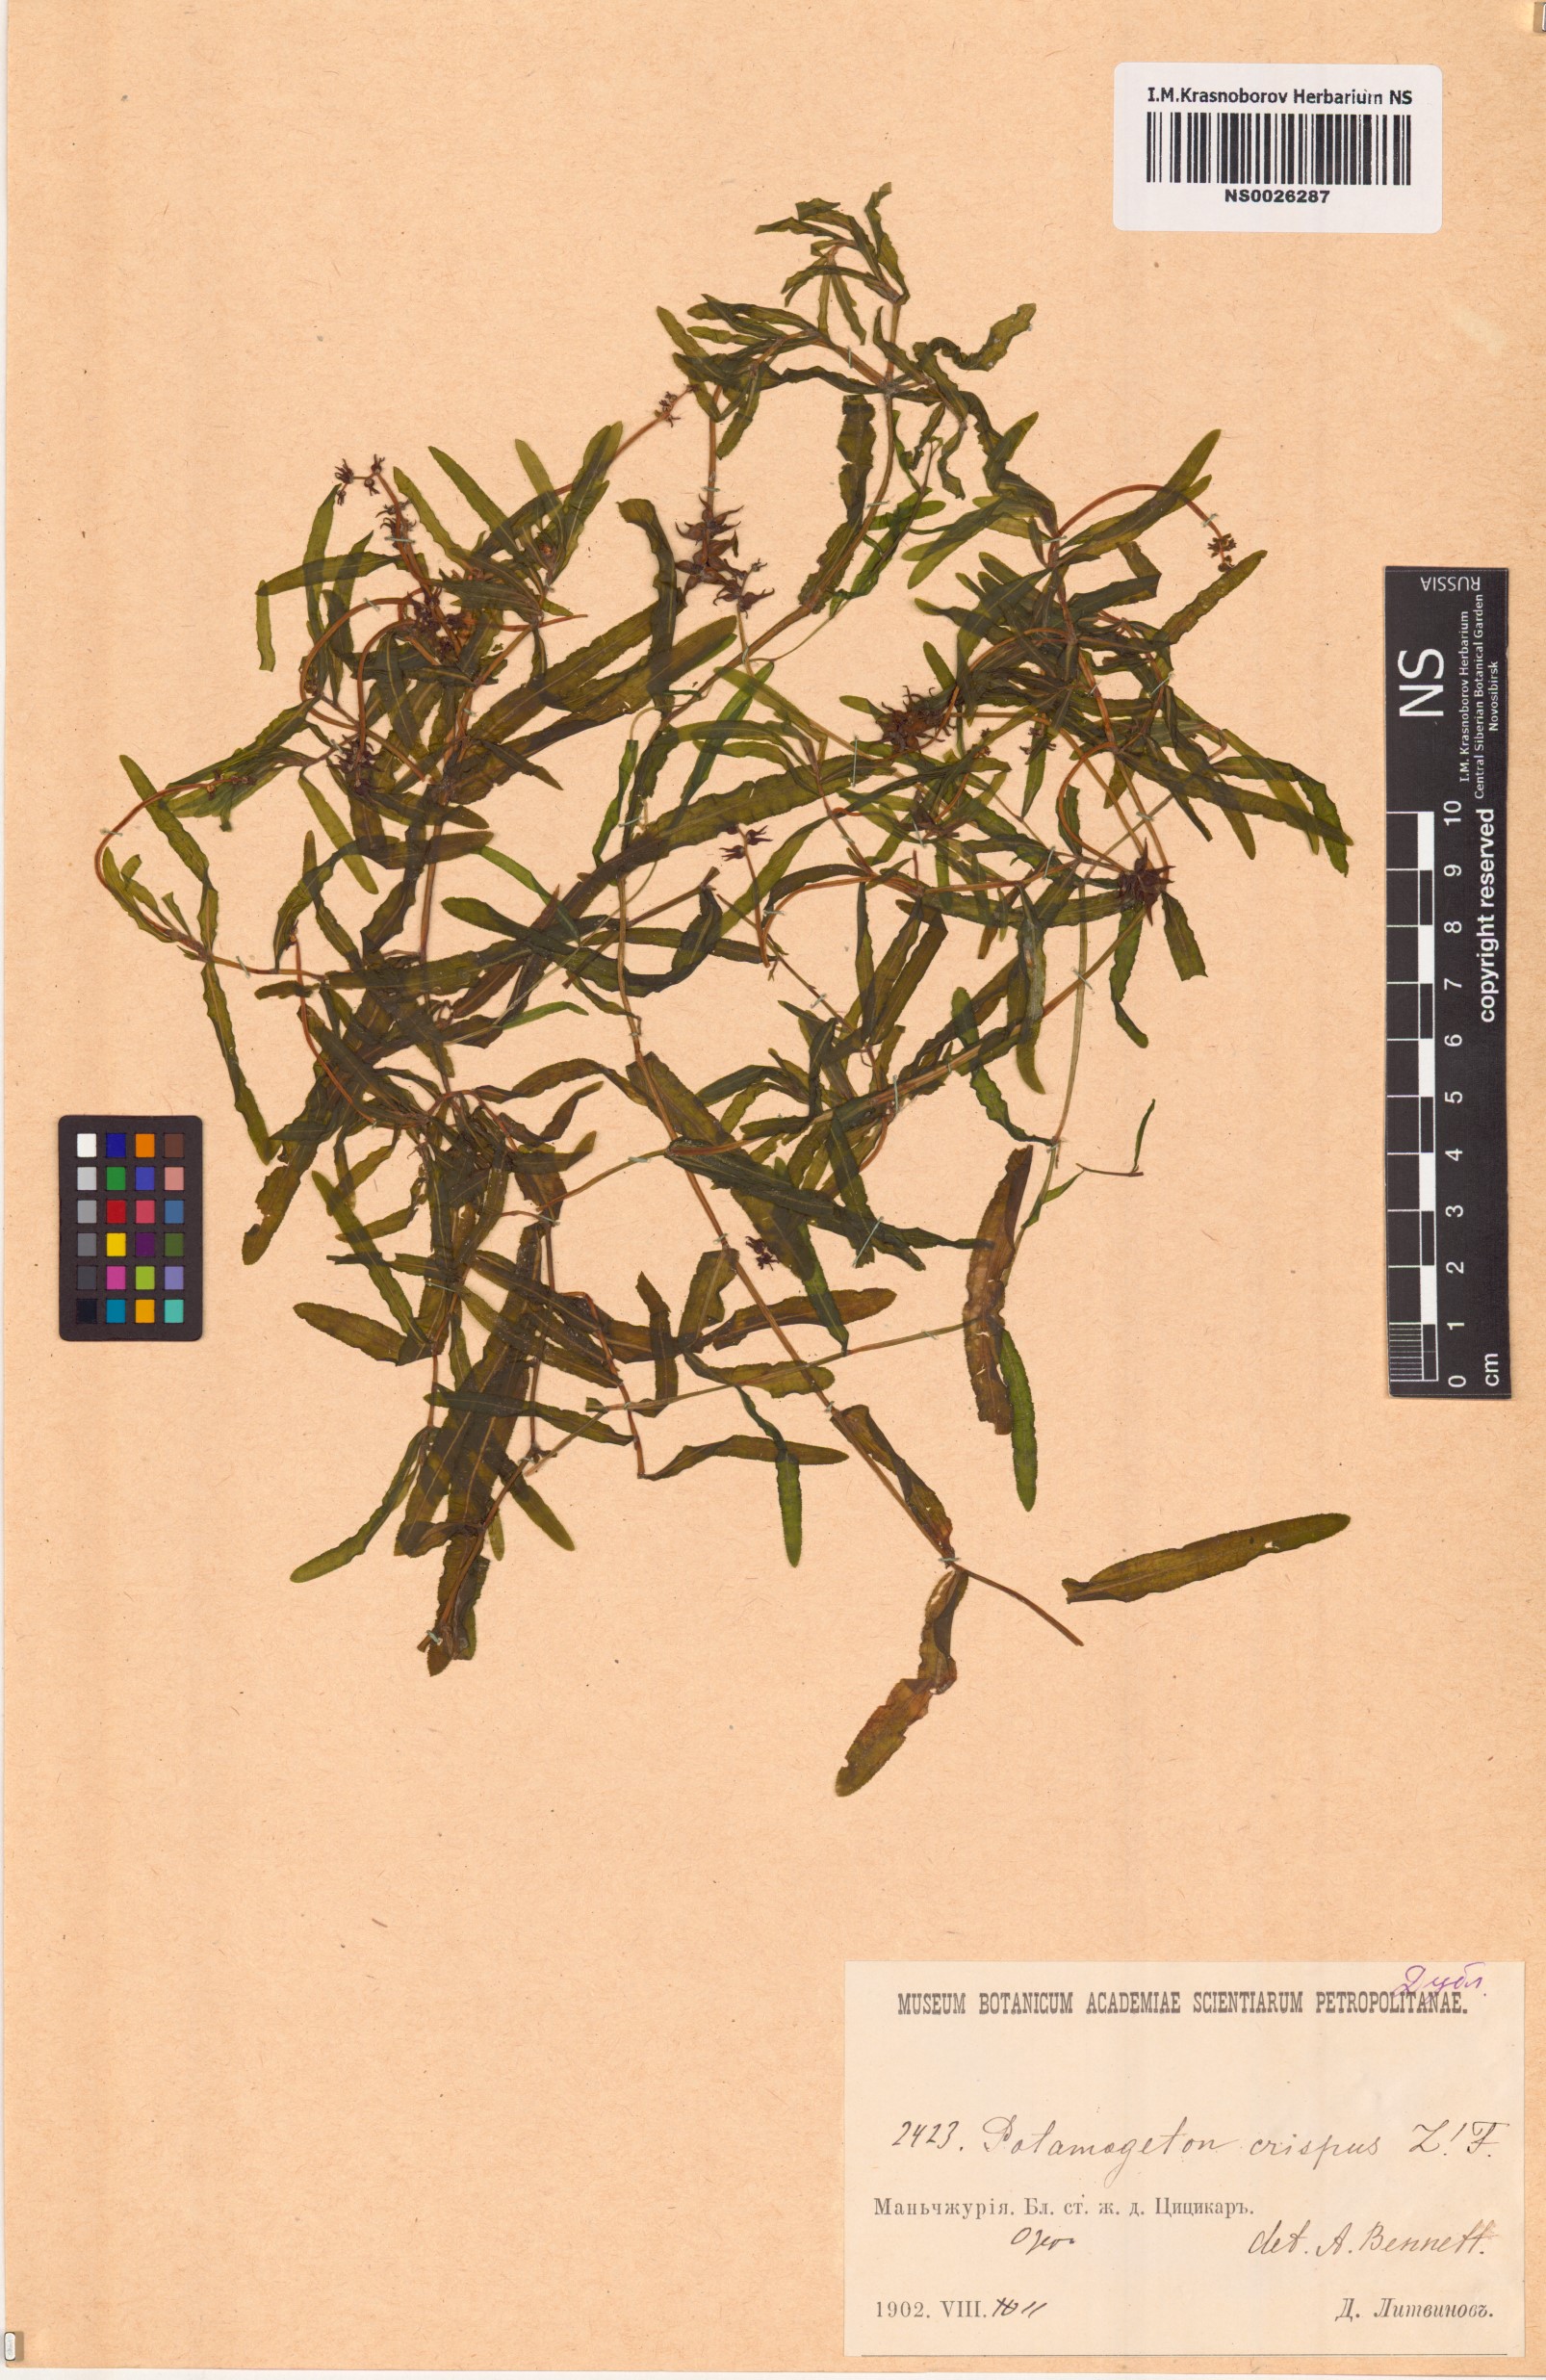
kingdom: Plantae
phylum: Tracheophyta
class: Liliopsida
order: Alismatales
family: Potamogetonaceae
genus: Potamogeton
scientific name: Potamogeton crispus
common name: Curled pondweed
